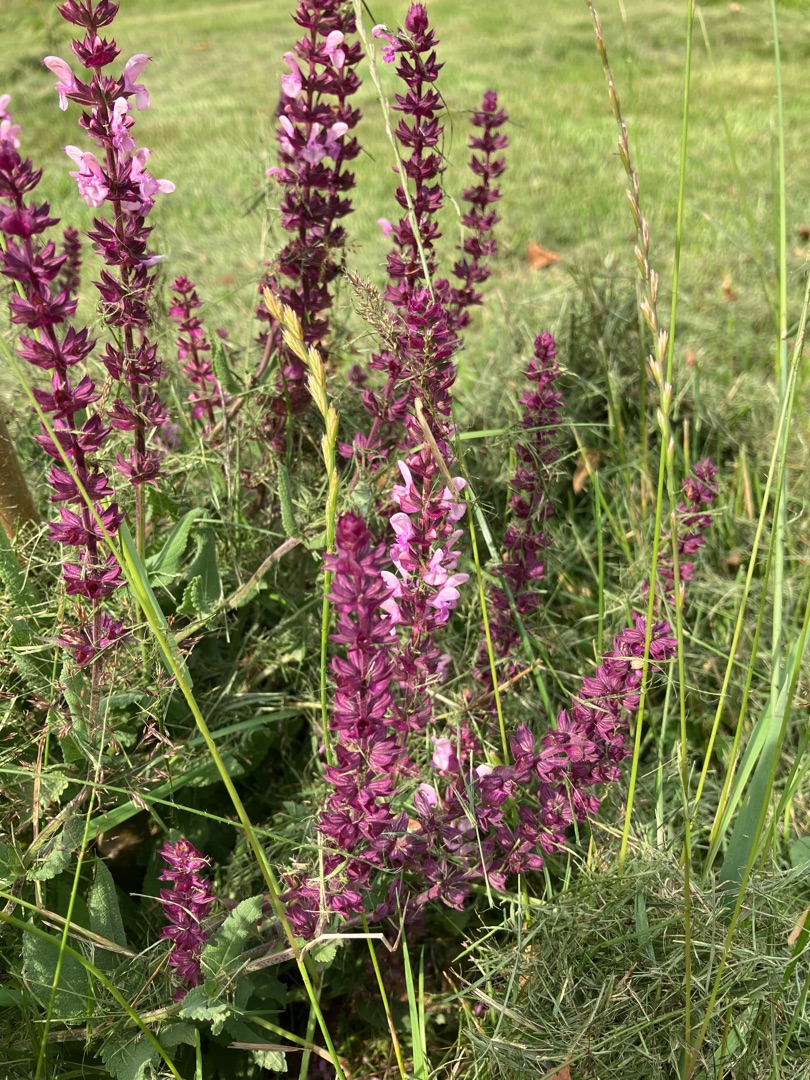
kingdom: Plantae
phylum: Tracheophyta
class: Magnoliopsida
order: Lamiales
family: Lamiaceae
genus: Salvia
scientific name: Salvia nemorosa
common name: Småblomstret salvie
